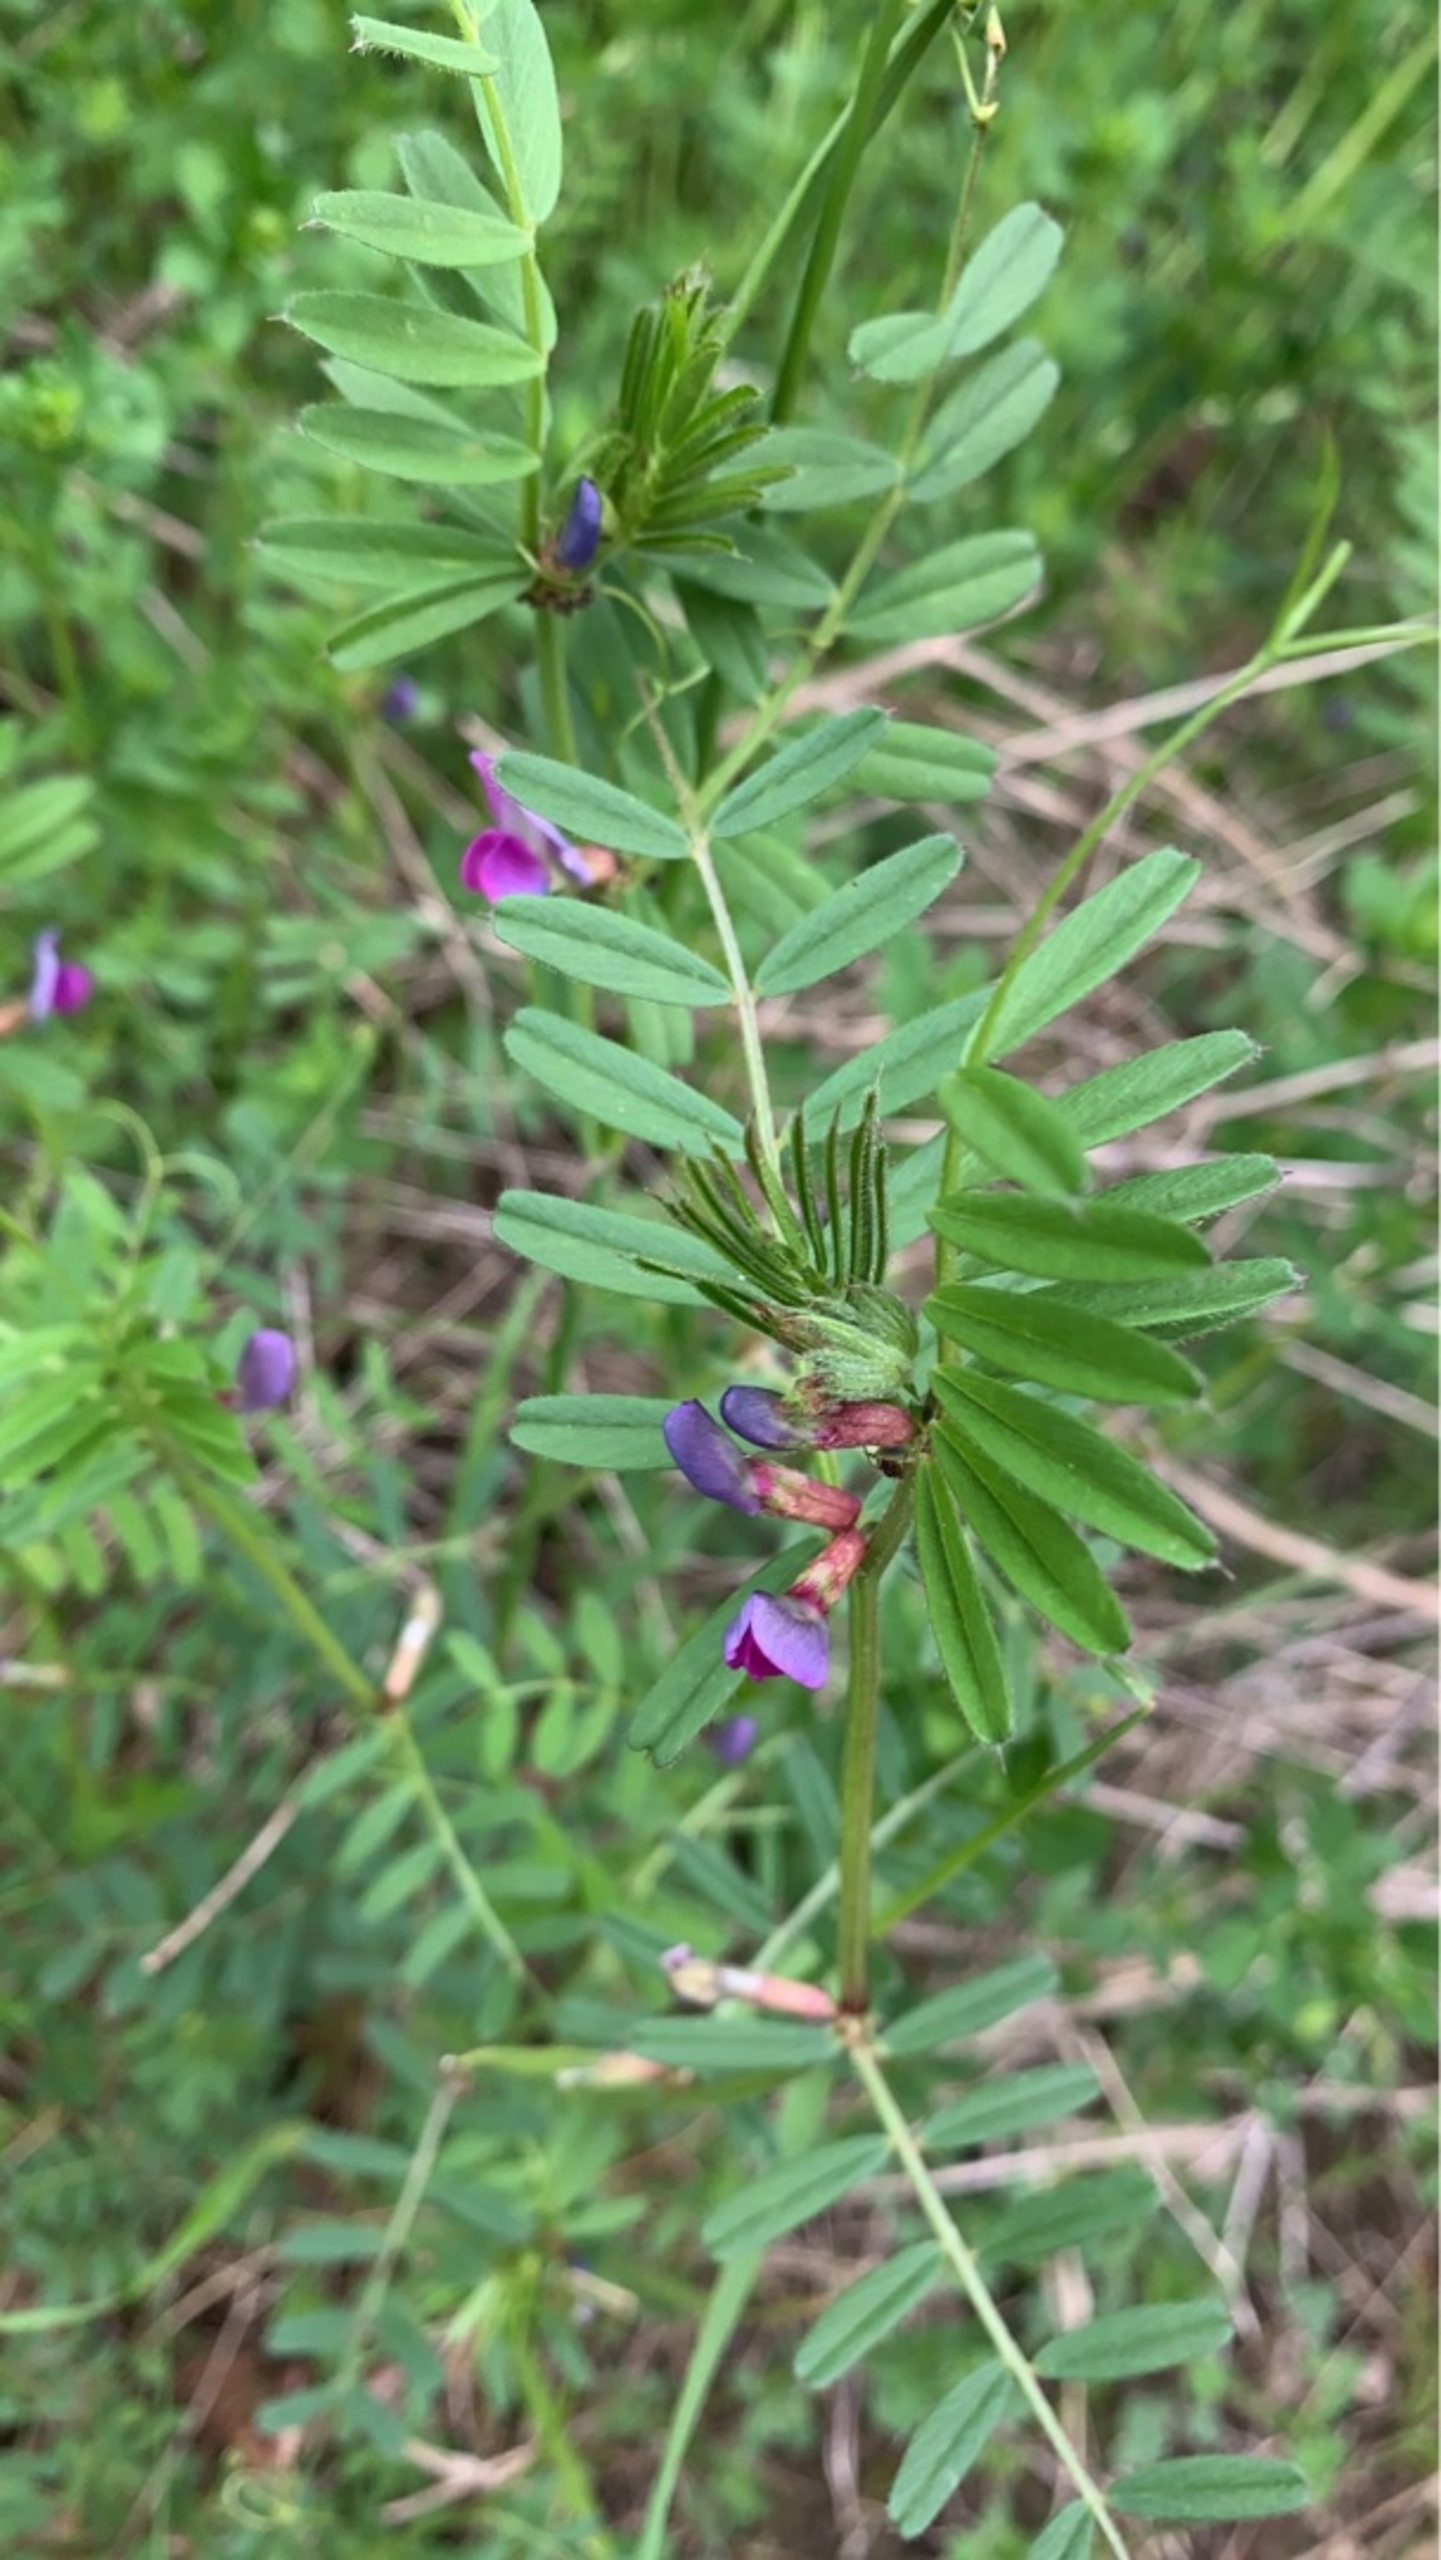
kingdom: Plantae
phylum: Tracheophyta
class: Magnoliopsida
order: Fabales
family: Fabaceae
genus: Vicia
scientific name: Vicia sativa
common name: Foder-vikke
